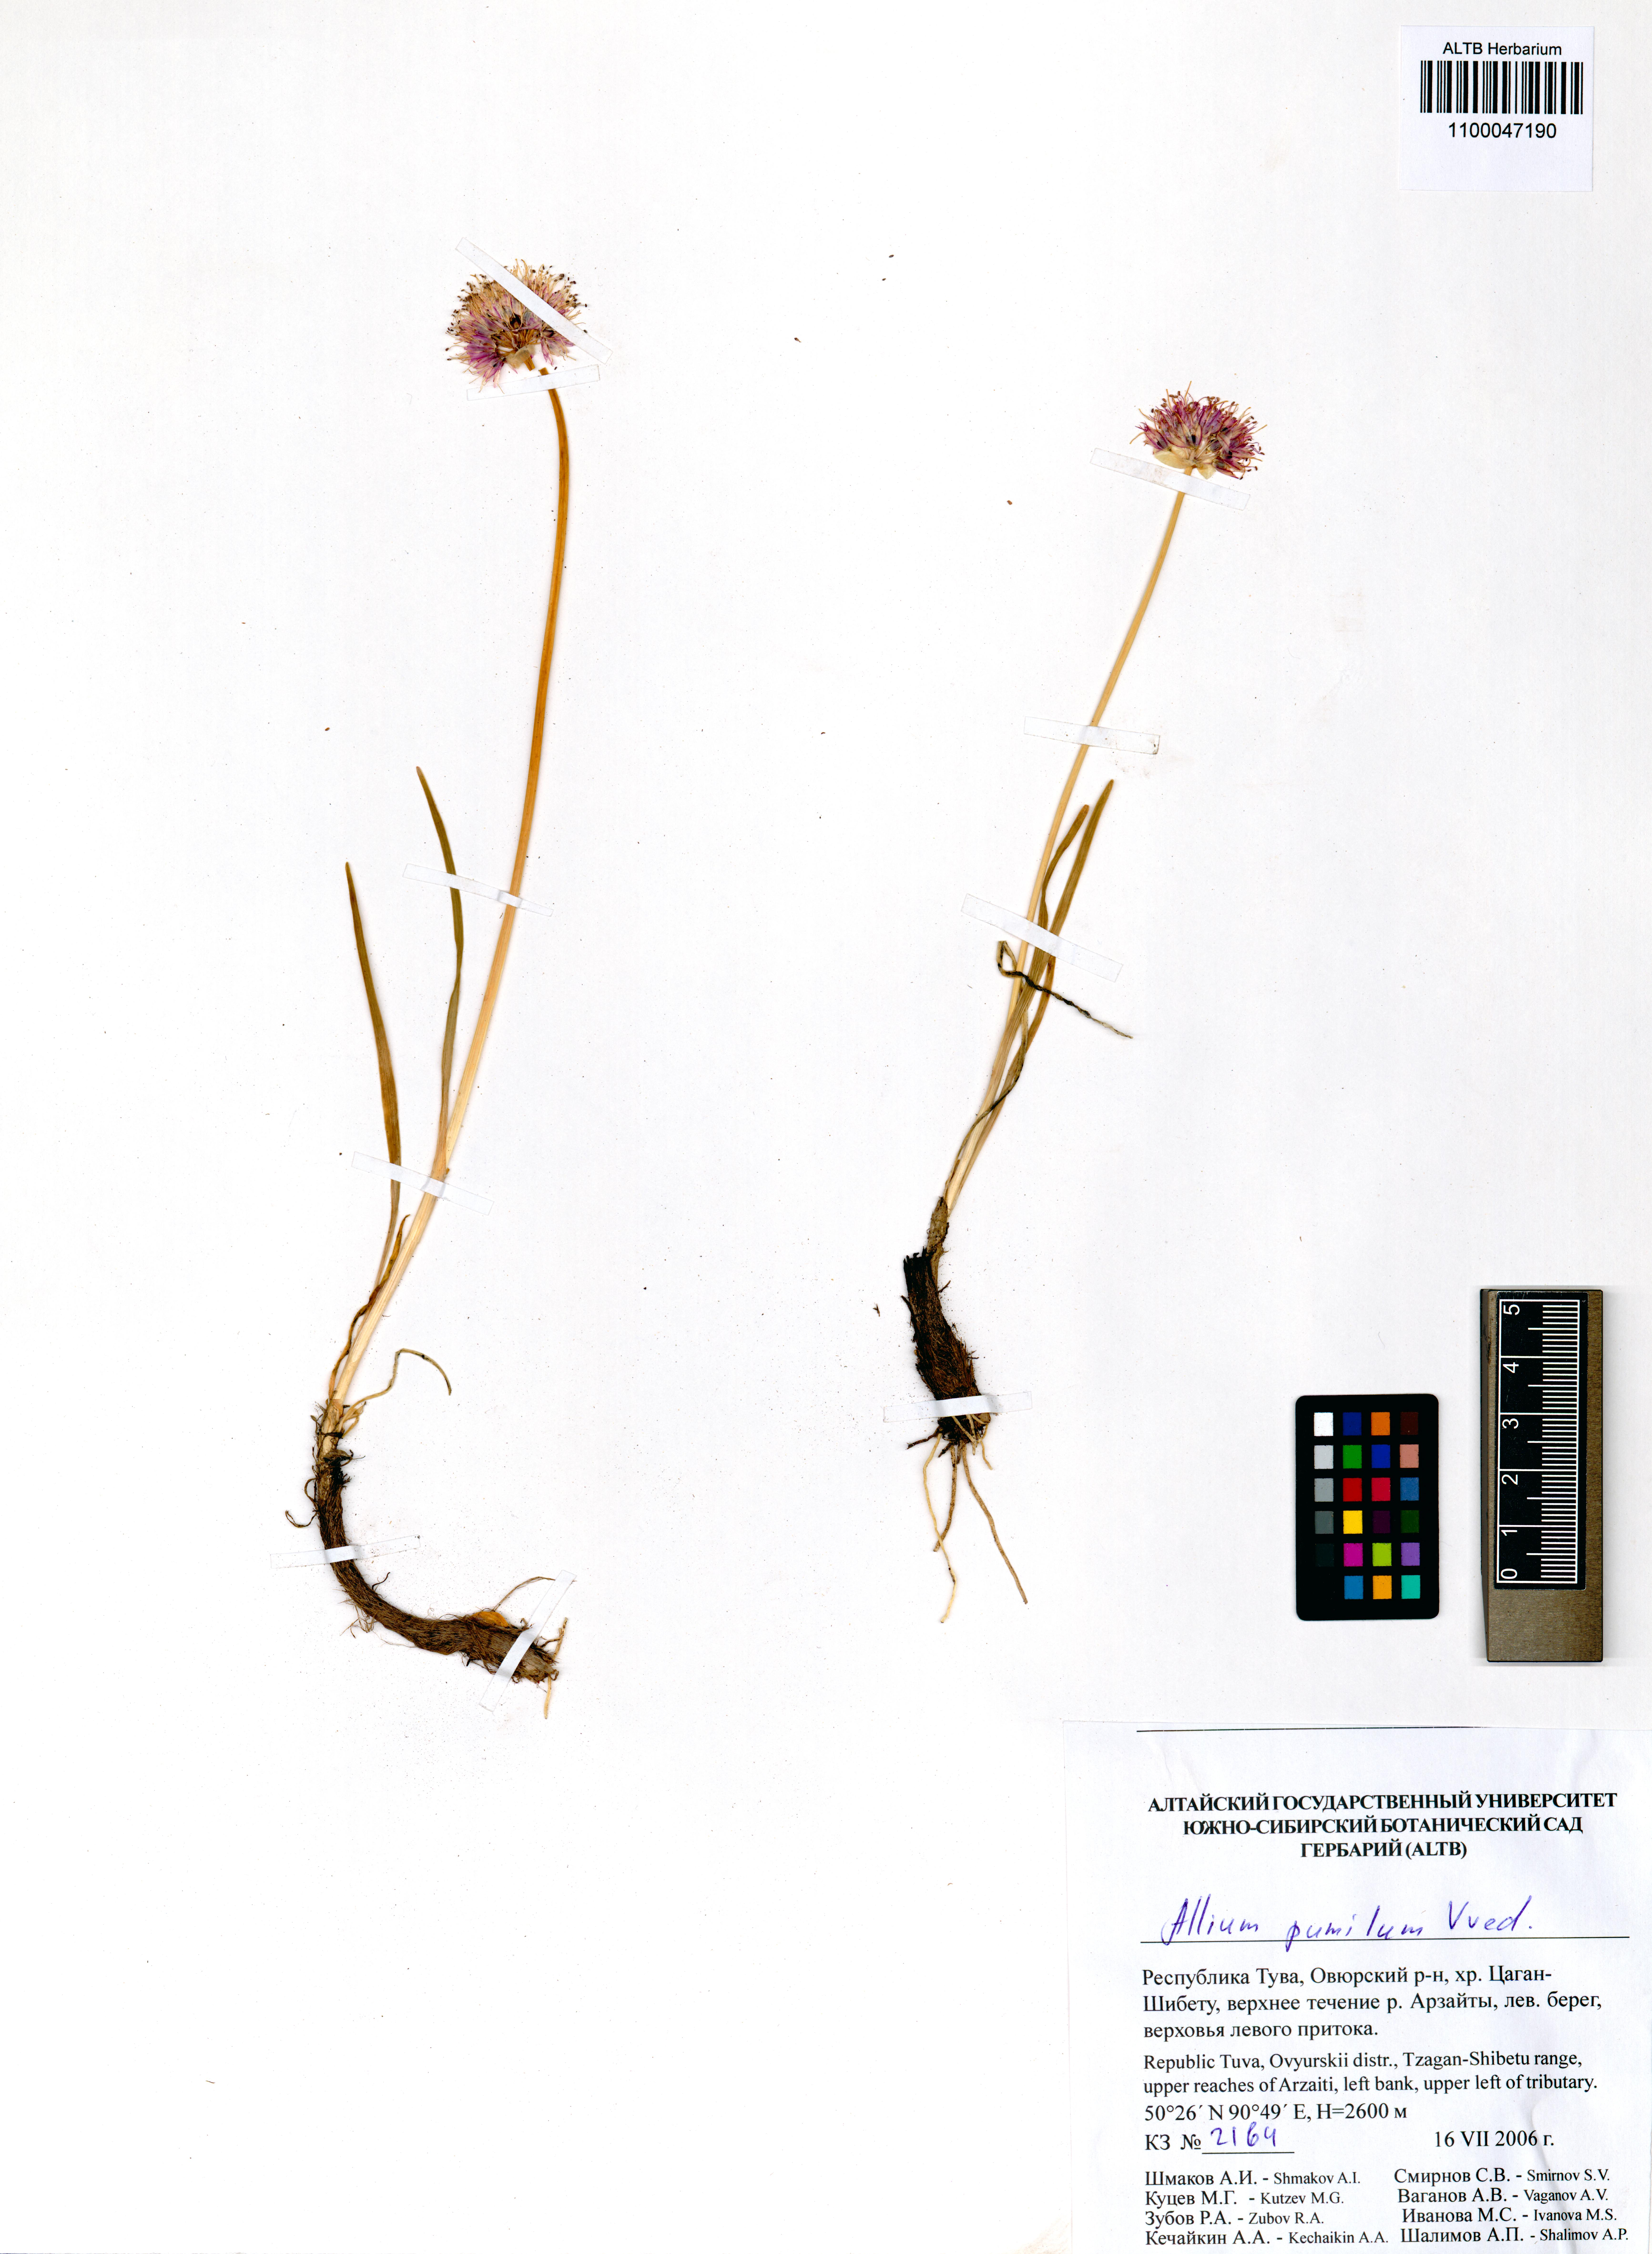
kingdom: Plantae
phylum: Tracheophyta
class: Liliopsida
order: Asparagales
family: Amaryllidaceae
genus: Allium
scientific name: Allium pumilum
